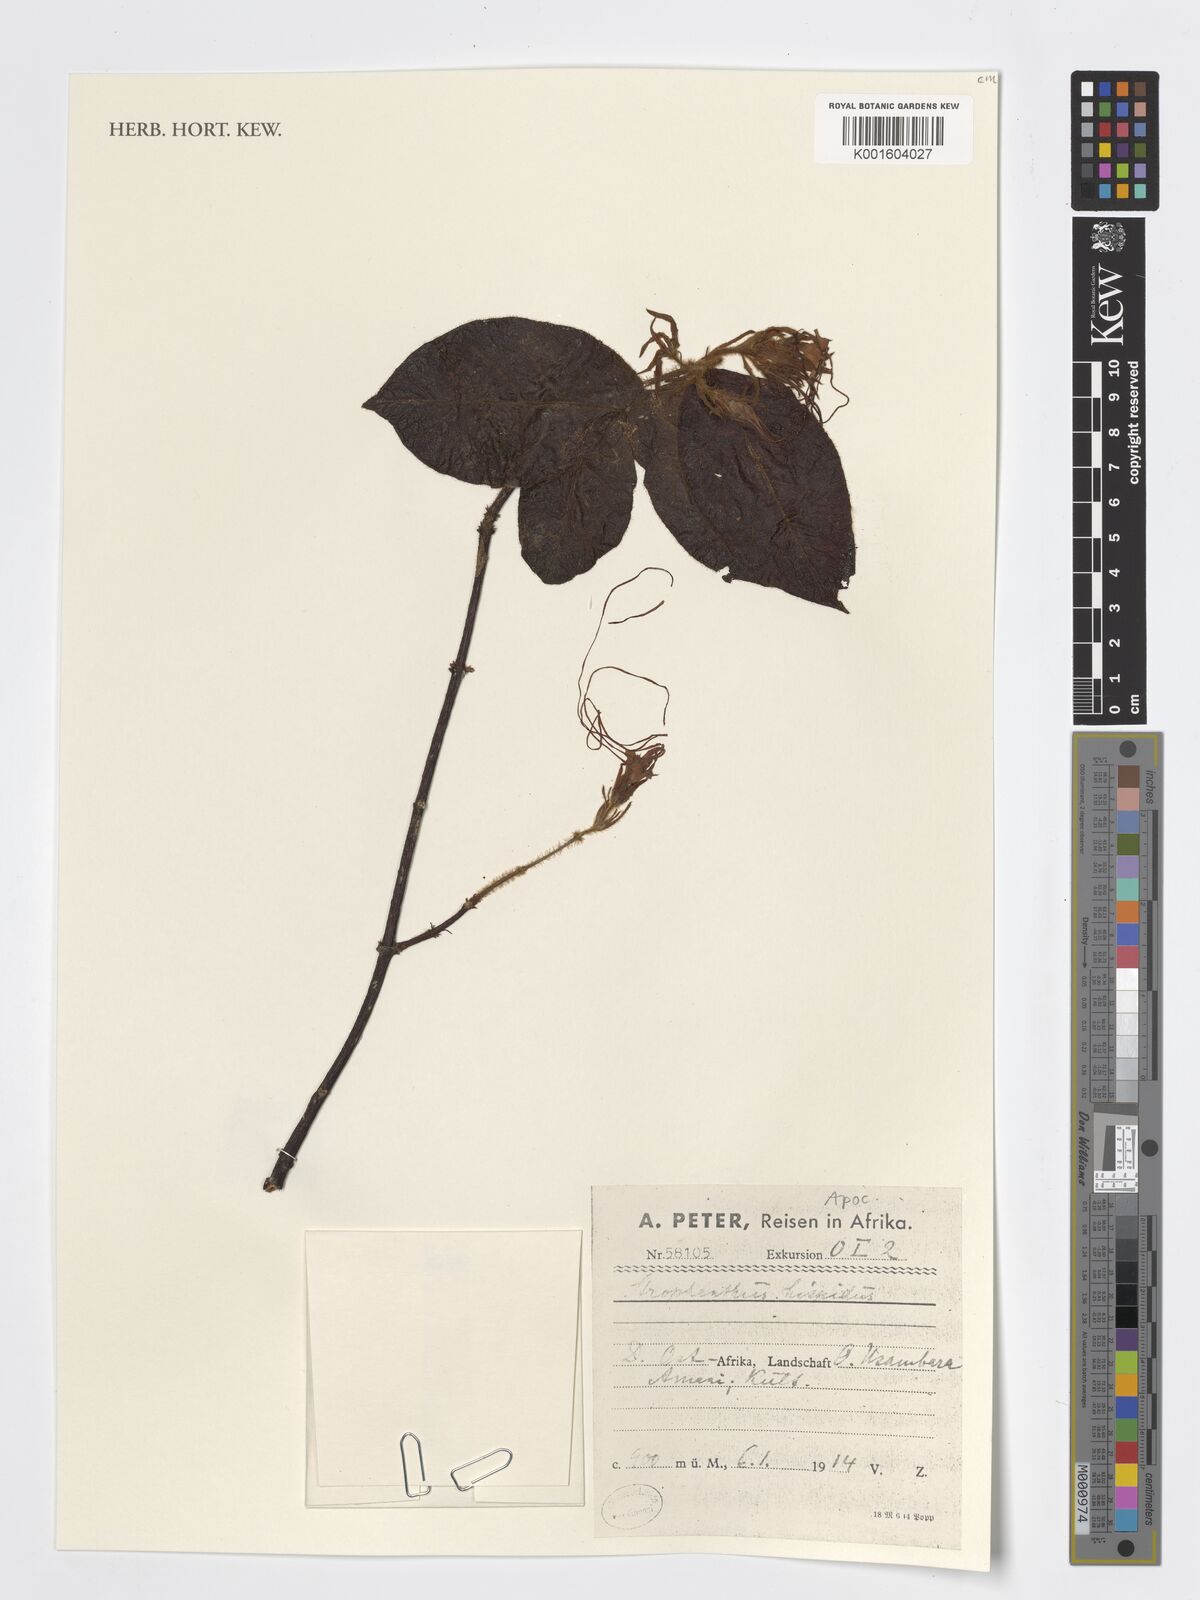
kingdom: Plantae
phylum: Tracheophyta
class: Magnoliopsida
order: Gentianales
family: Apocynaceae
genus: Strophanthus
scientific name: Strophanthus hispidus
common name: Hairy strophanthus
